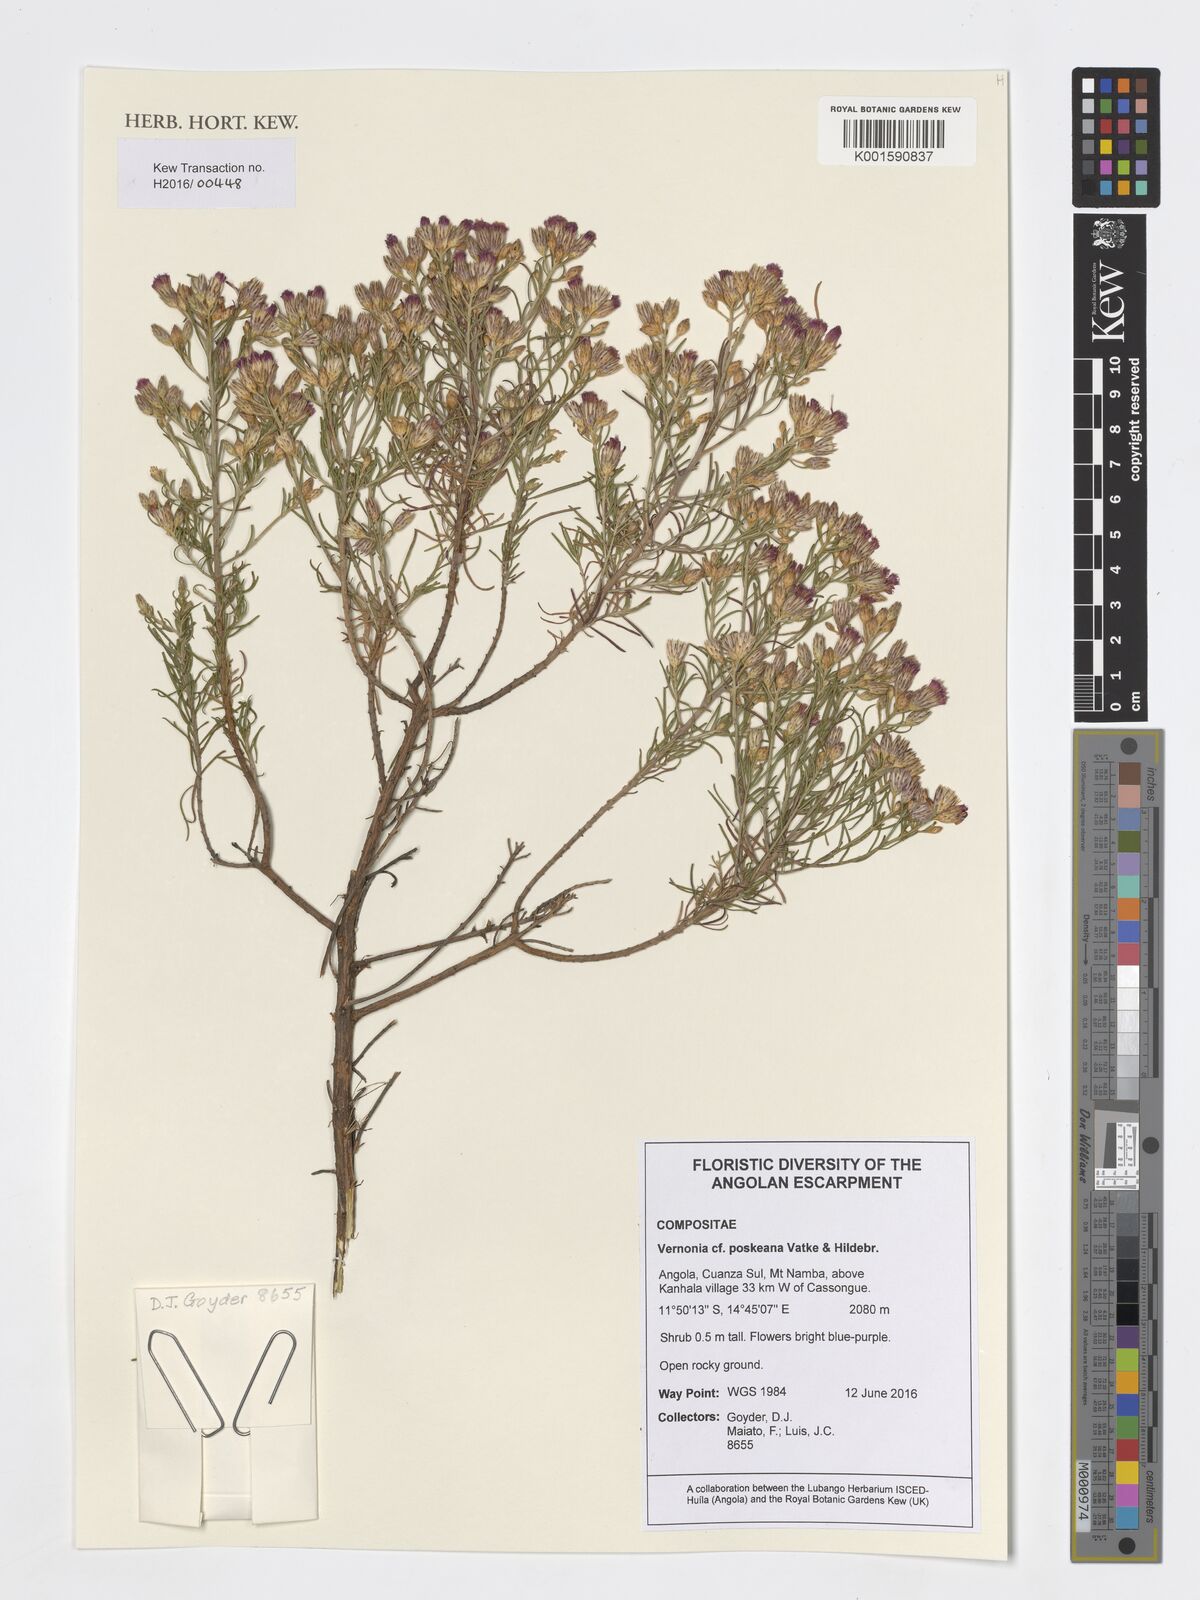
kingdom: Plantae
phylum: Tracheophyta
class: Magnoliopsida
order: Asterales
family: Asteraceae
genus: Crystallopollen
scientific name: Crystallopollen angustifolium
